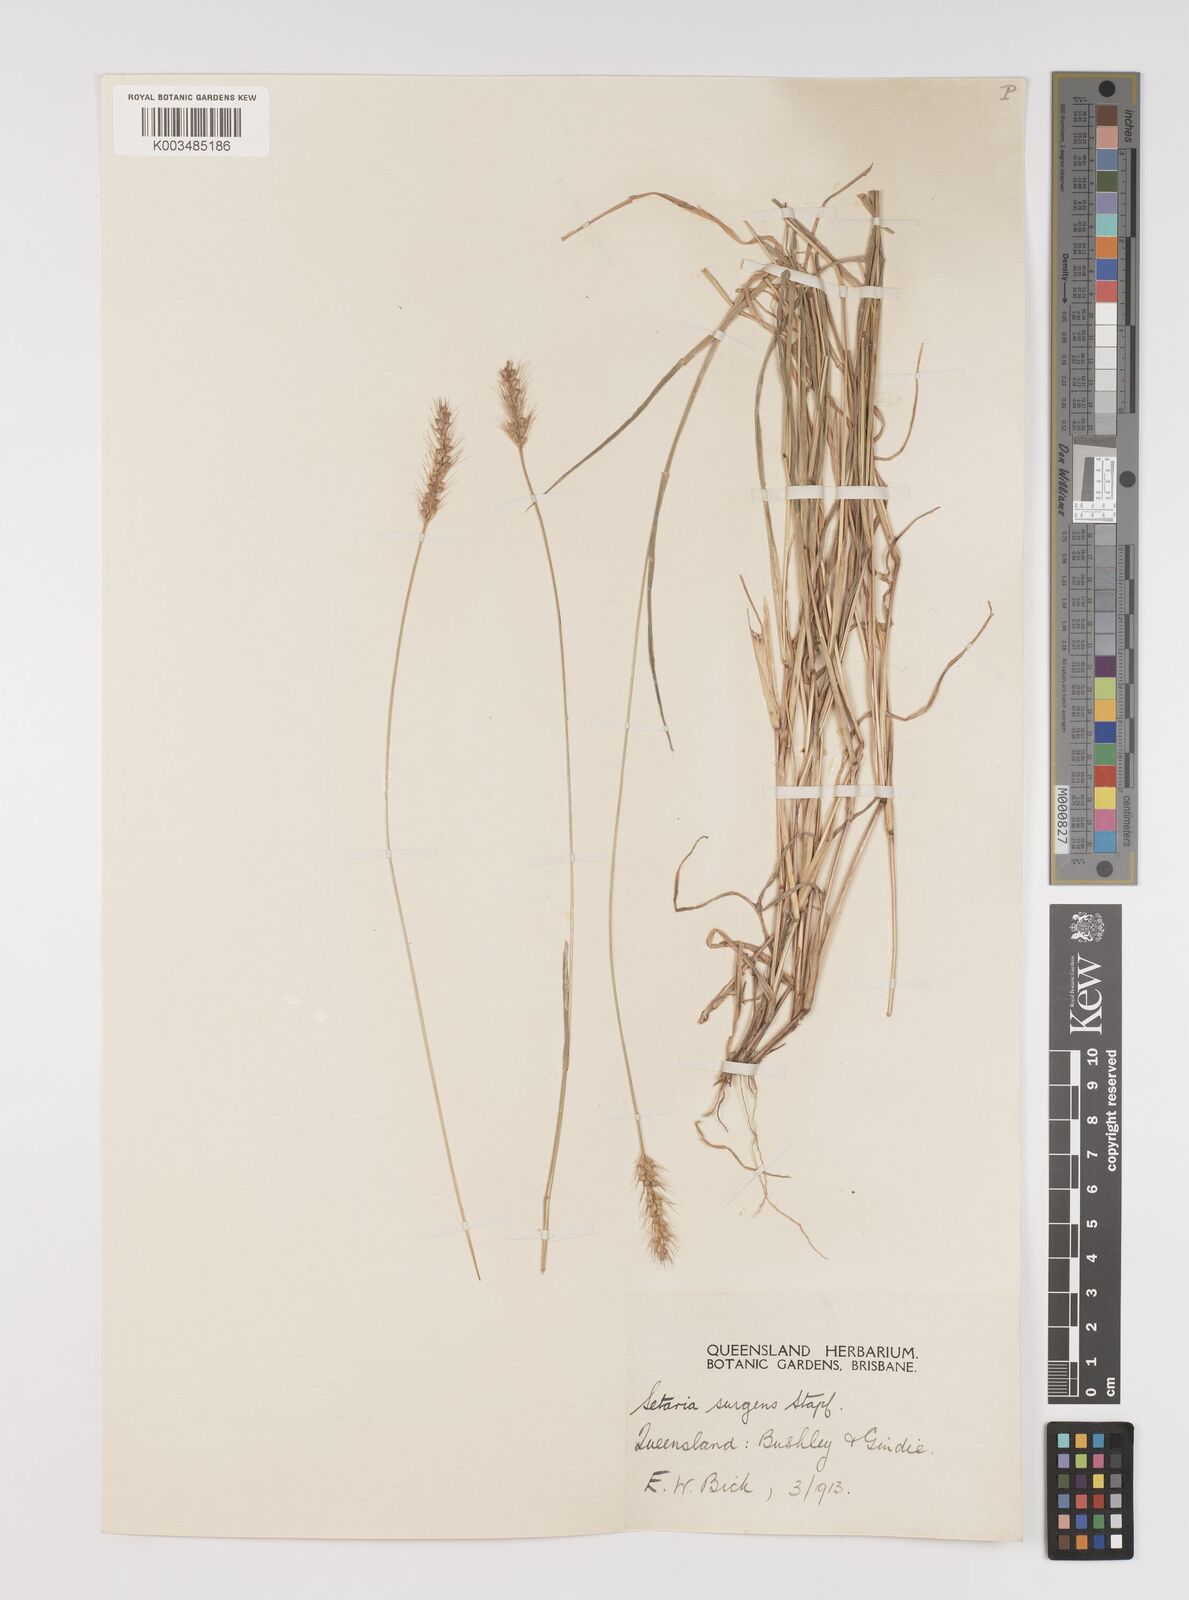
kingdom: Plantae
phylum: Tracheophyta
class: Liliopsida
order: Poales
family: Poaceae
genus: Setaria
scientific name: Setaria apiculata
